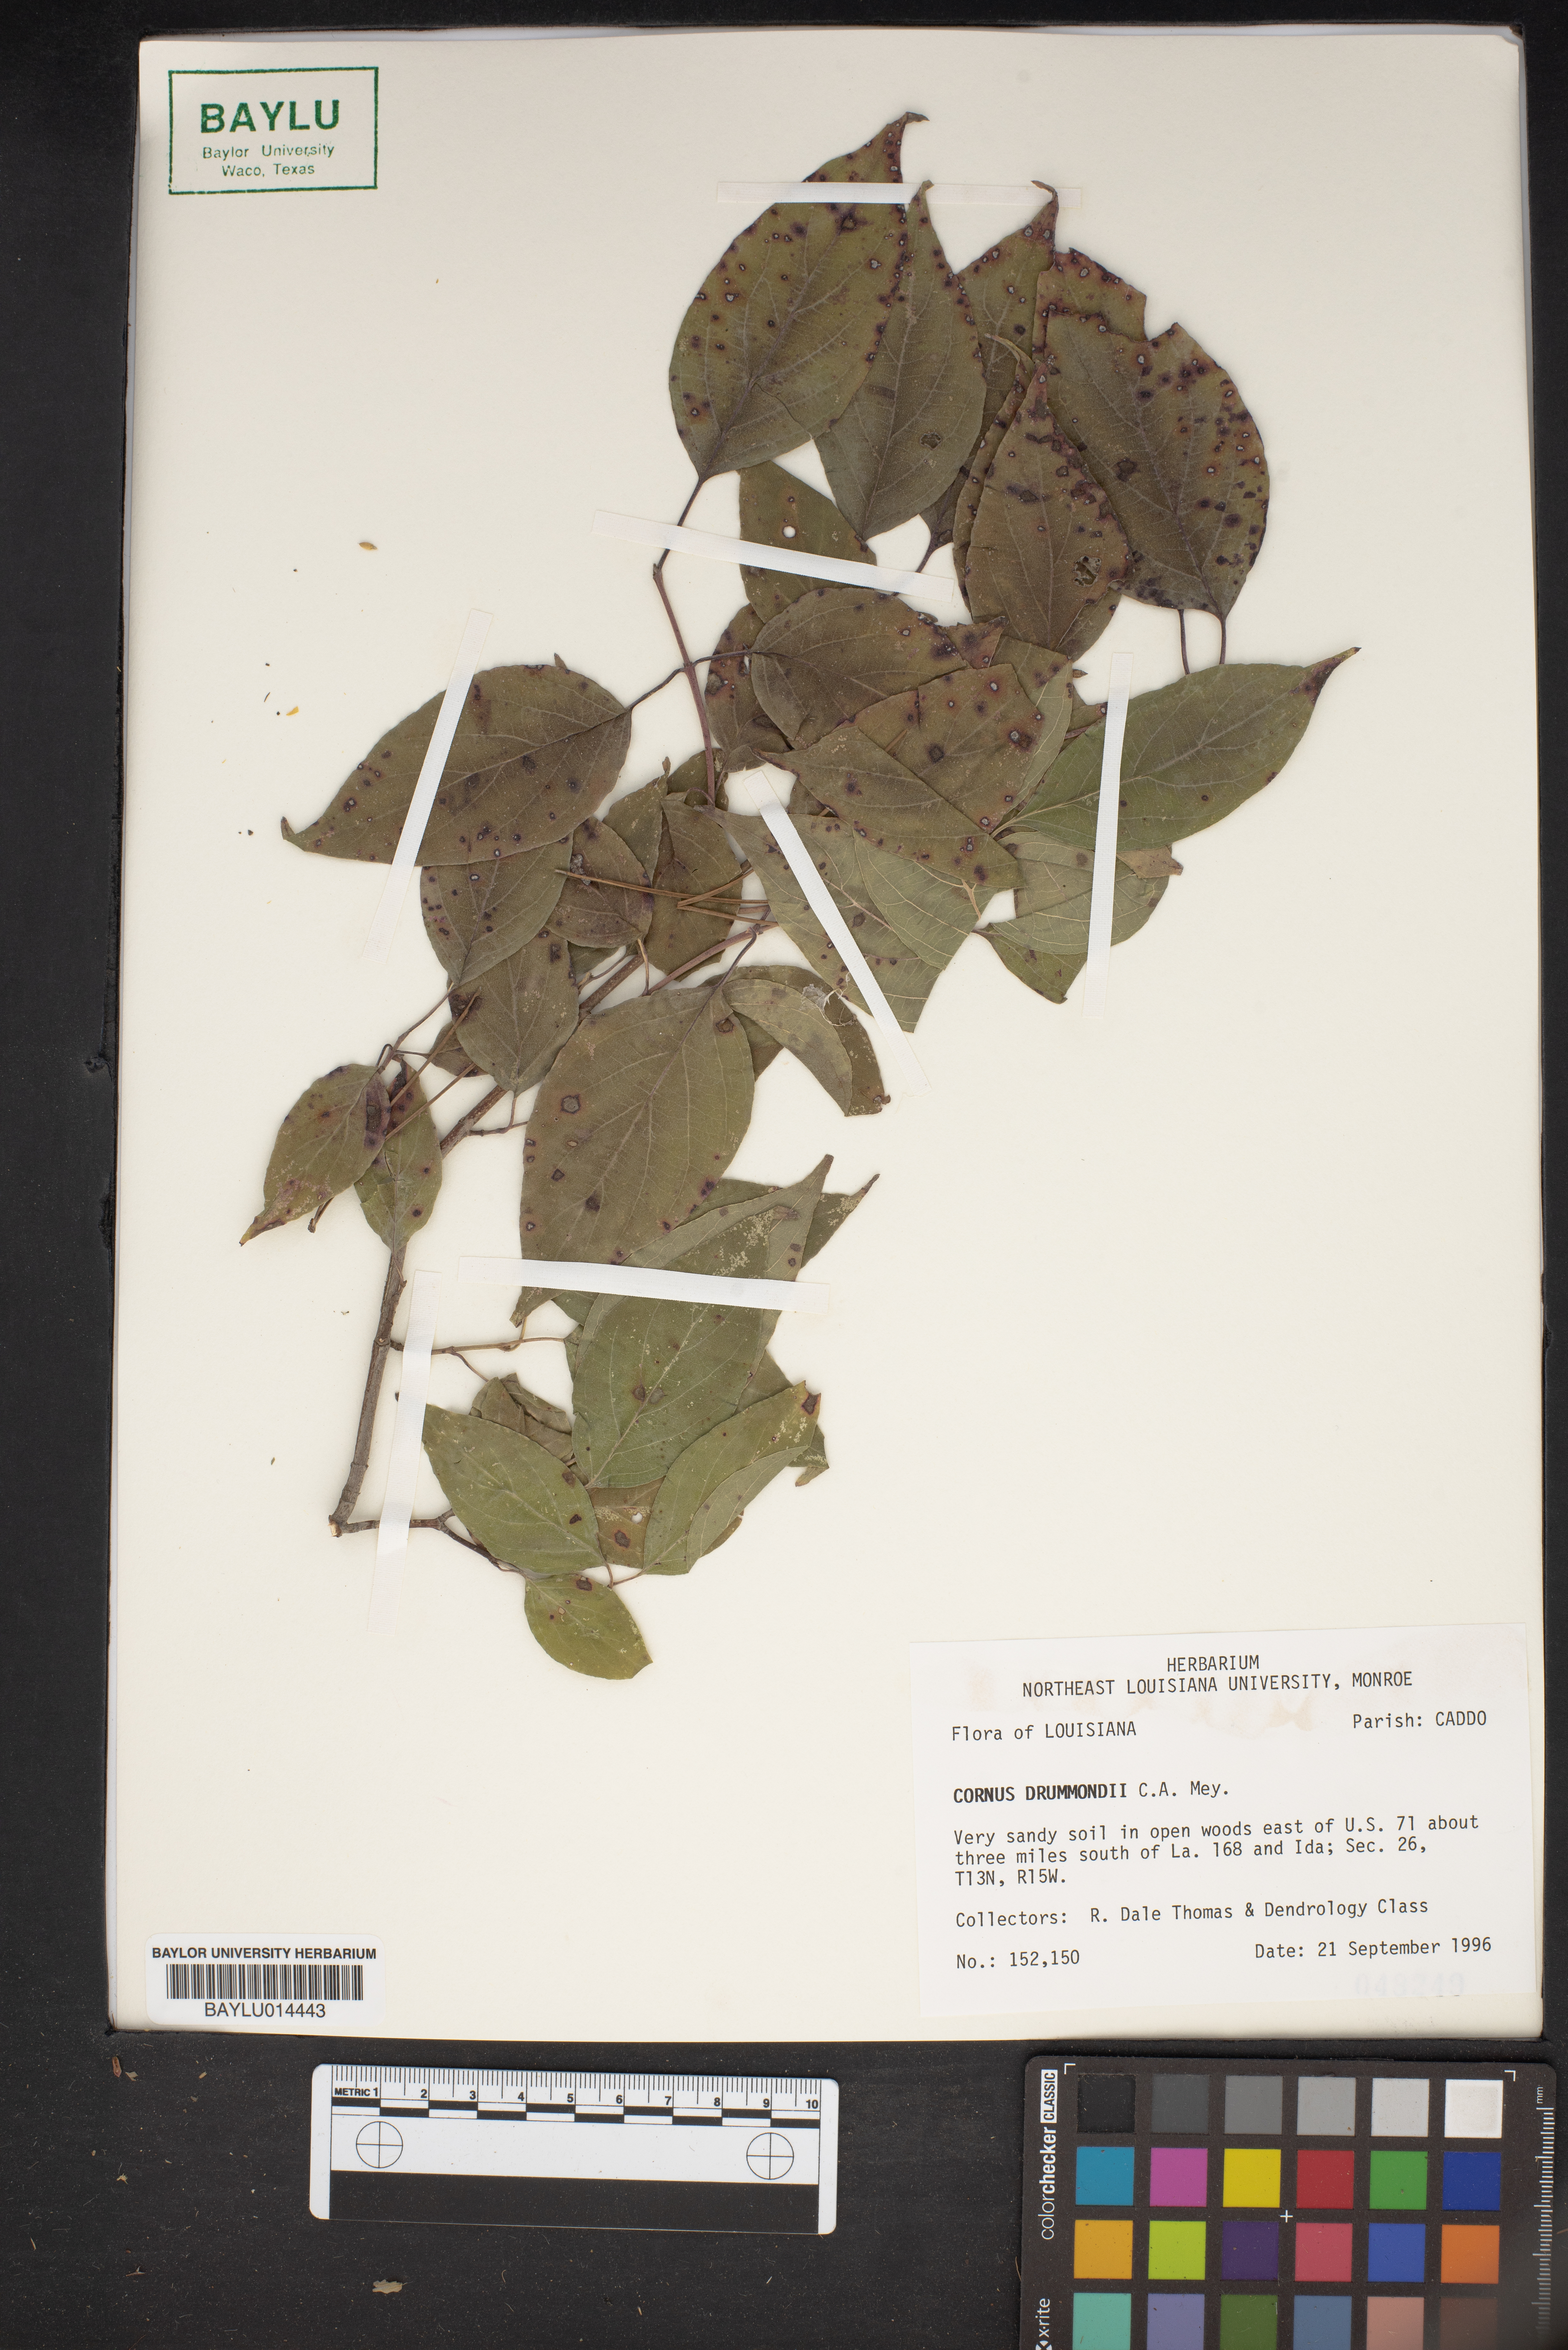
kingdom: Plantae
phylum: Tracheophyta
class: Magnoliopsida
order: Cornales
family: Cornaceae
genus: Cornus
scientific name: Cornus drummondii
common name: Rough-leaf dogwood
